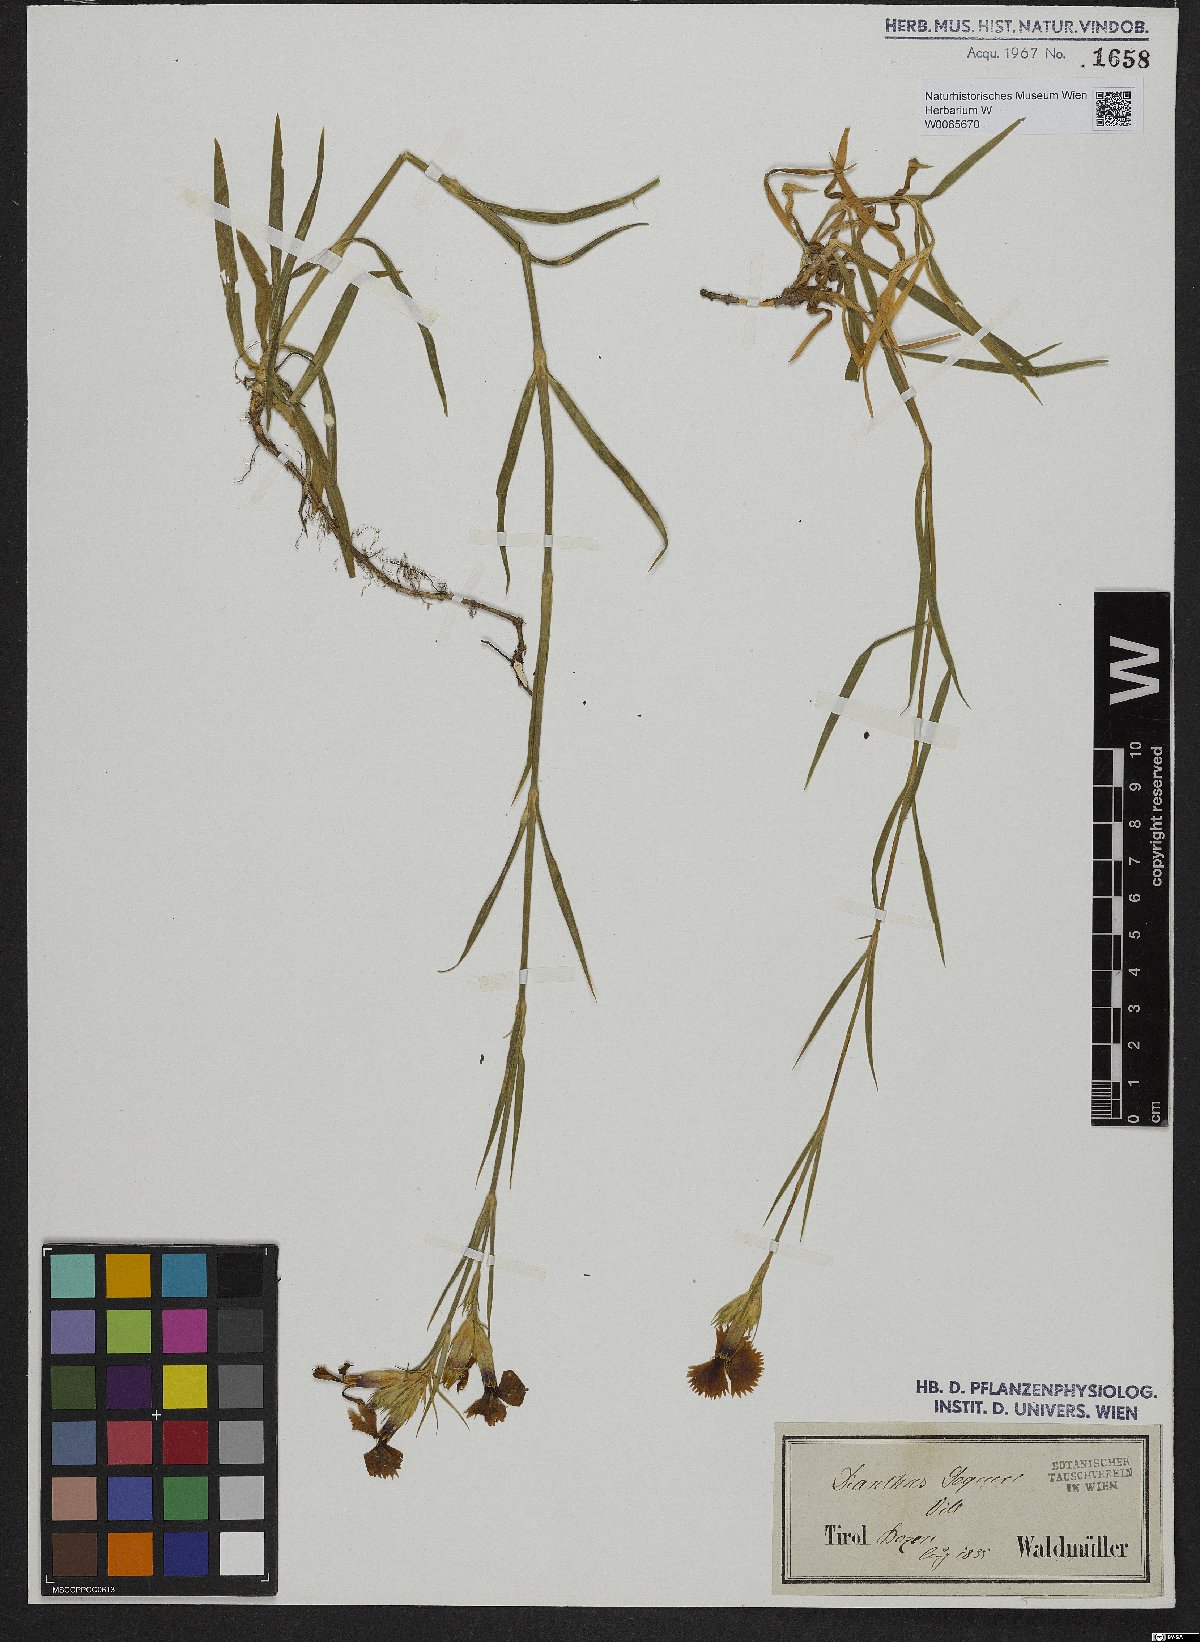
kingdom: Plantae
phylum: Tracheophyta
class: Magnoliopsida
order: Caryophyllales
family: Caryophyllaceae
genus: Dianthus
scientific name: Dianthus seguieri
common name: Ragged pink
